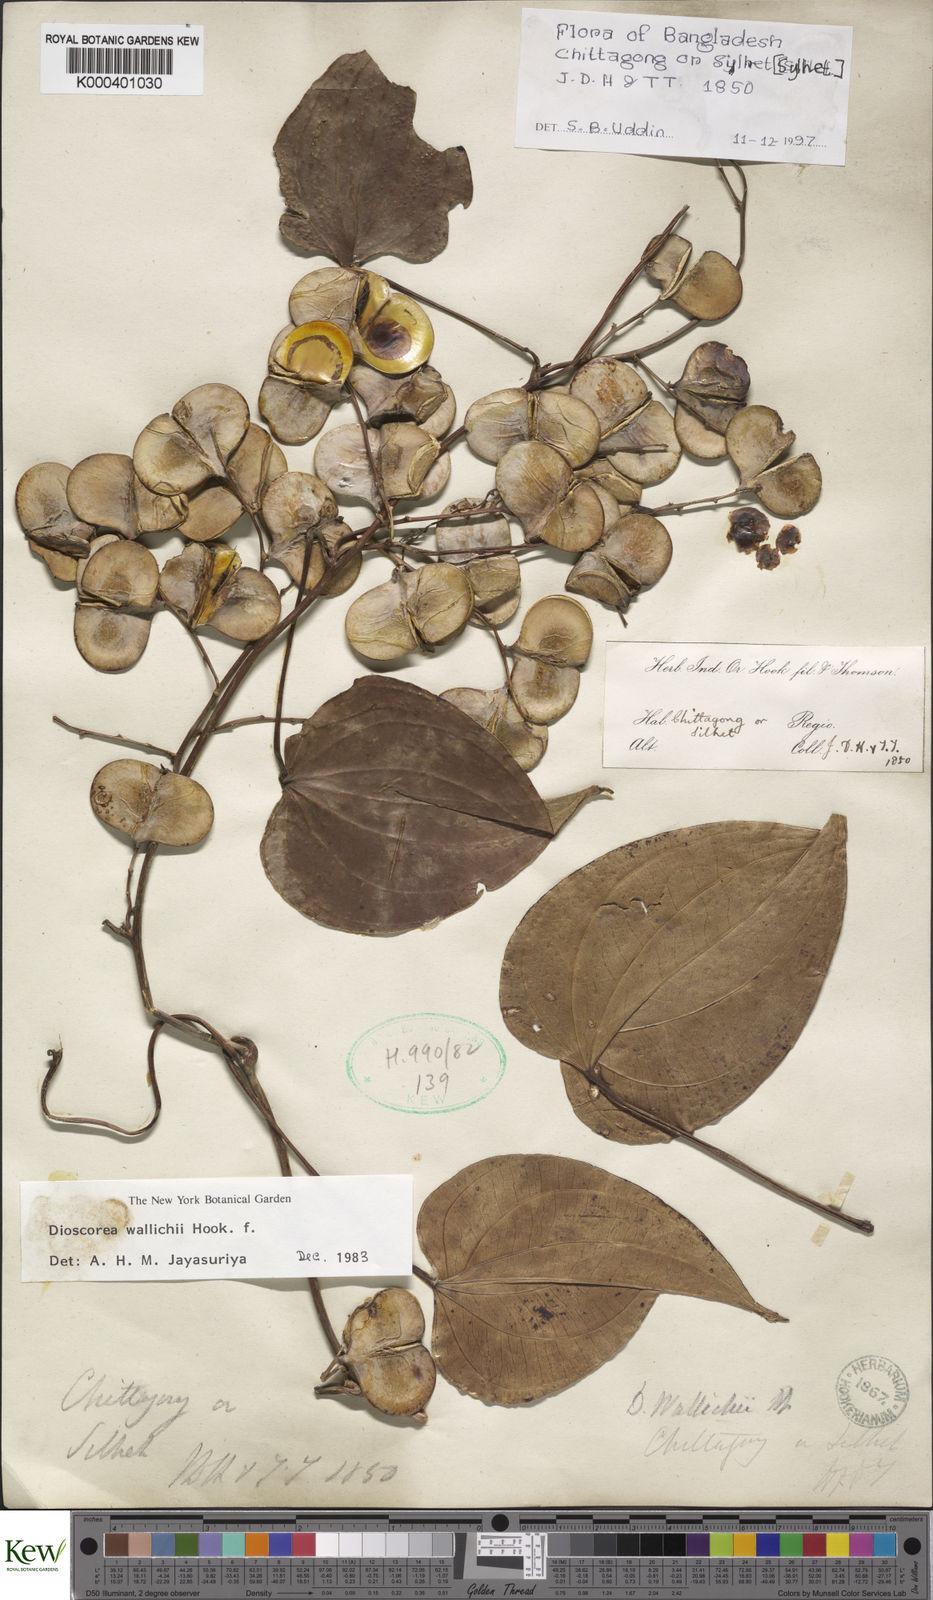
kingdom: Plantae
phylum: Tracheophyta
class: Liliopsida
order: Dioscoreales
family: Dioscoreaceae
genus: Dioscorea
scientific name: Dioscorea wallichii
